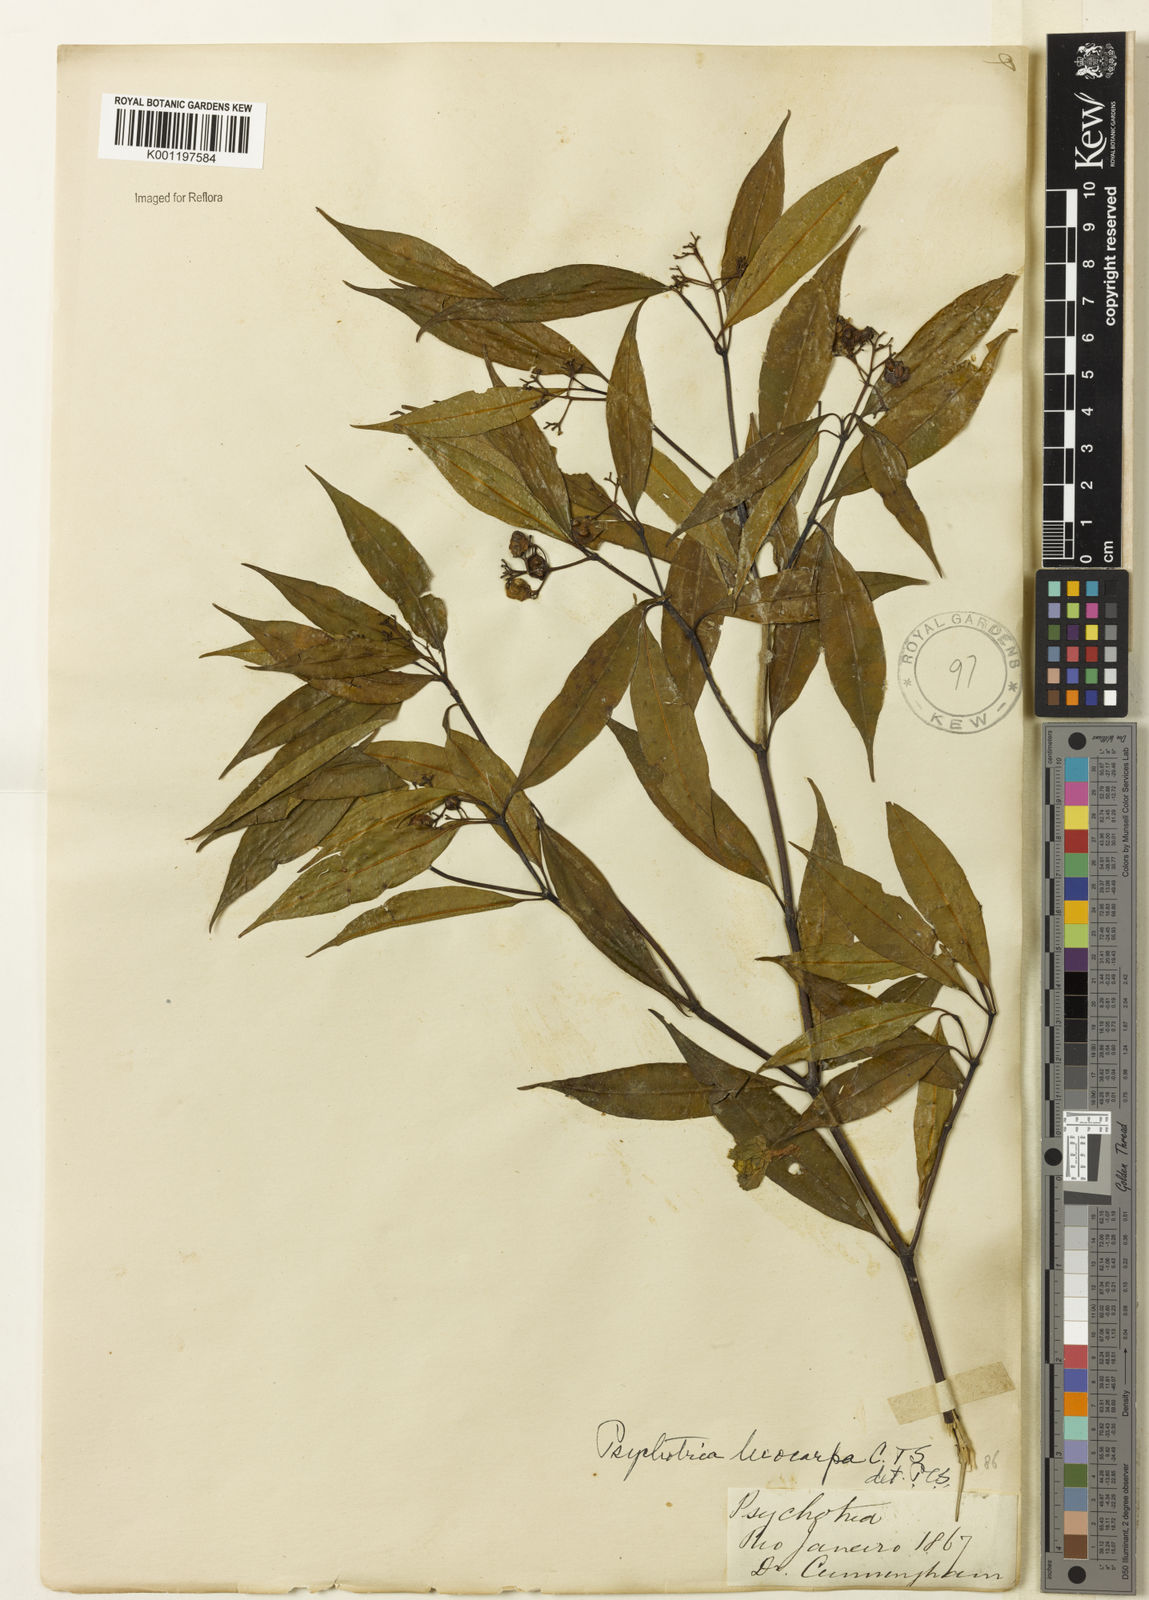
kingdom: Plantae
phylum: Tracheophyta
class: Magnoliopsida
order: Gentianales
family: Rubiaceae
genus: Psychotria
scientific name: Psychotria leiocarpa
